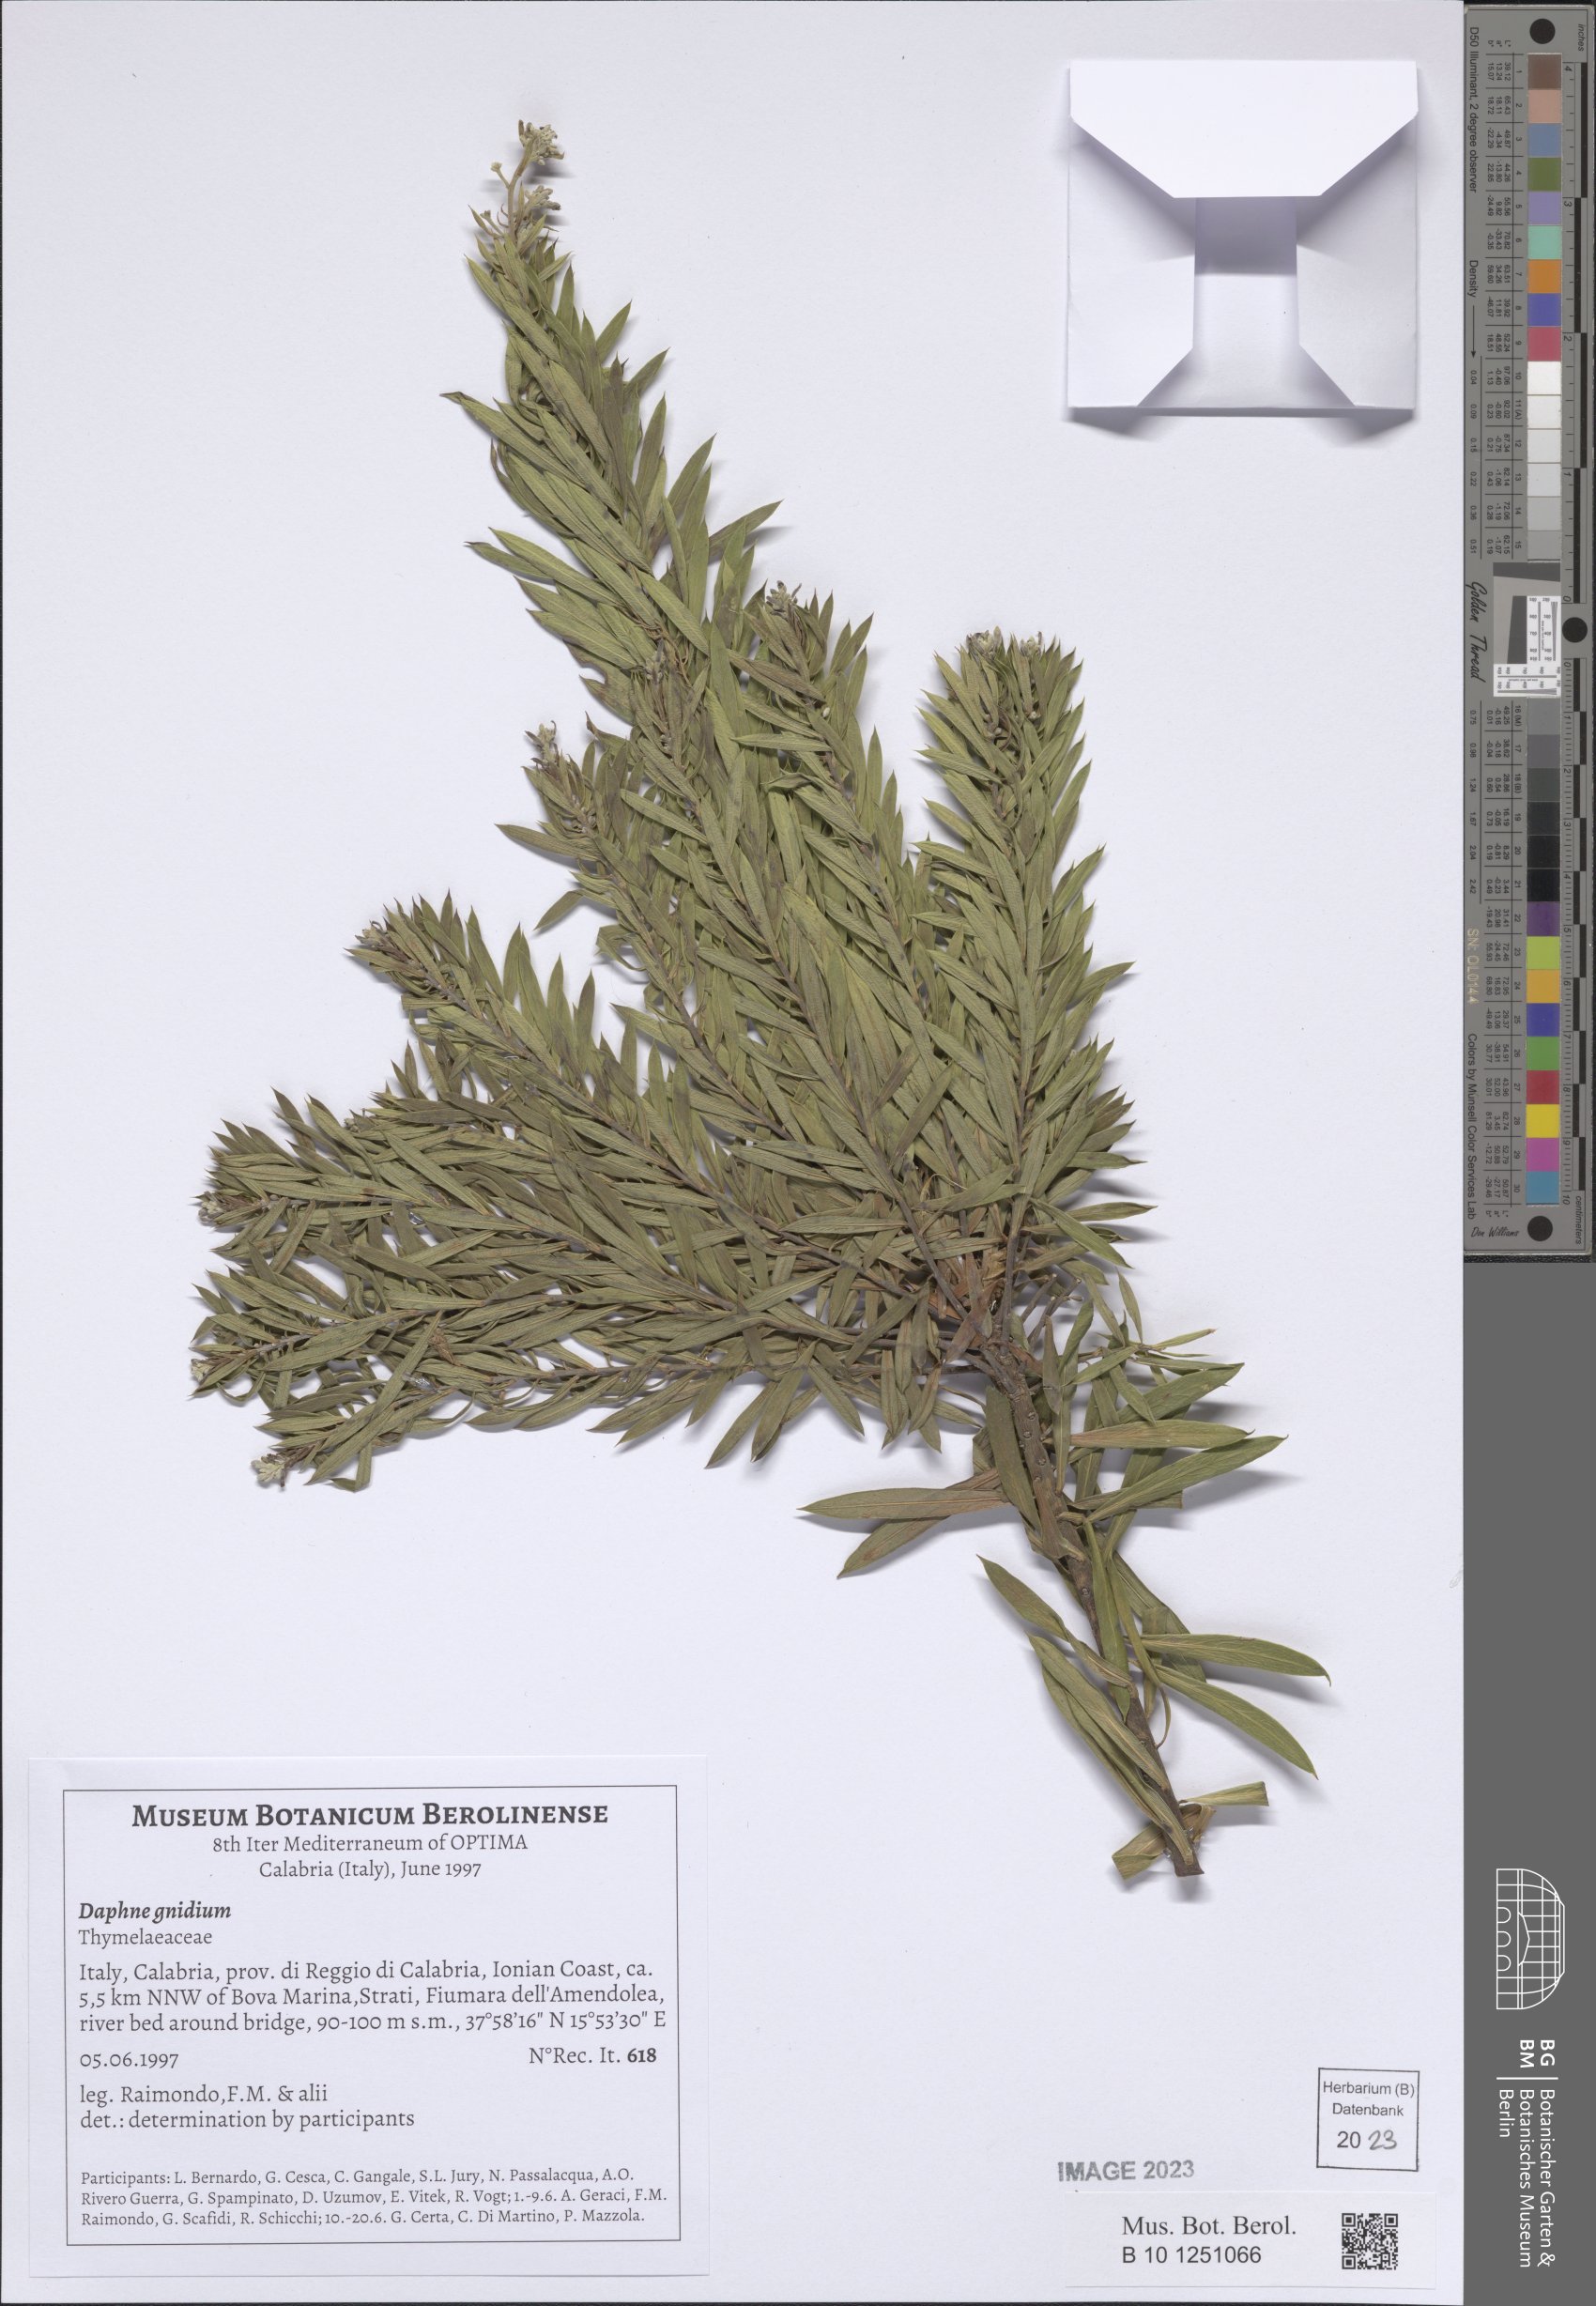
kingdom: Plantae
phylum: Tracheophyta
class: Magnoliopsida
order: Malvales
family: Thymelaeaceae
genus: Daphne
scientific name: Daphne gnidium
